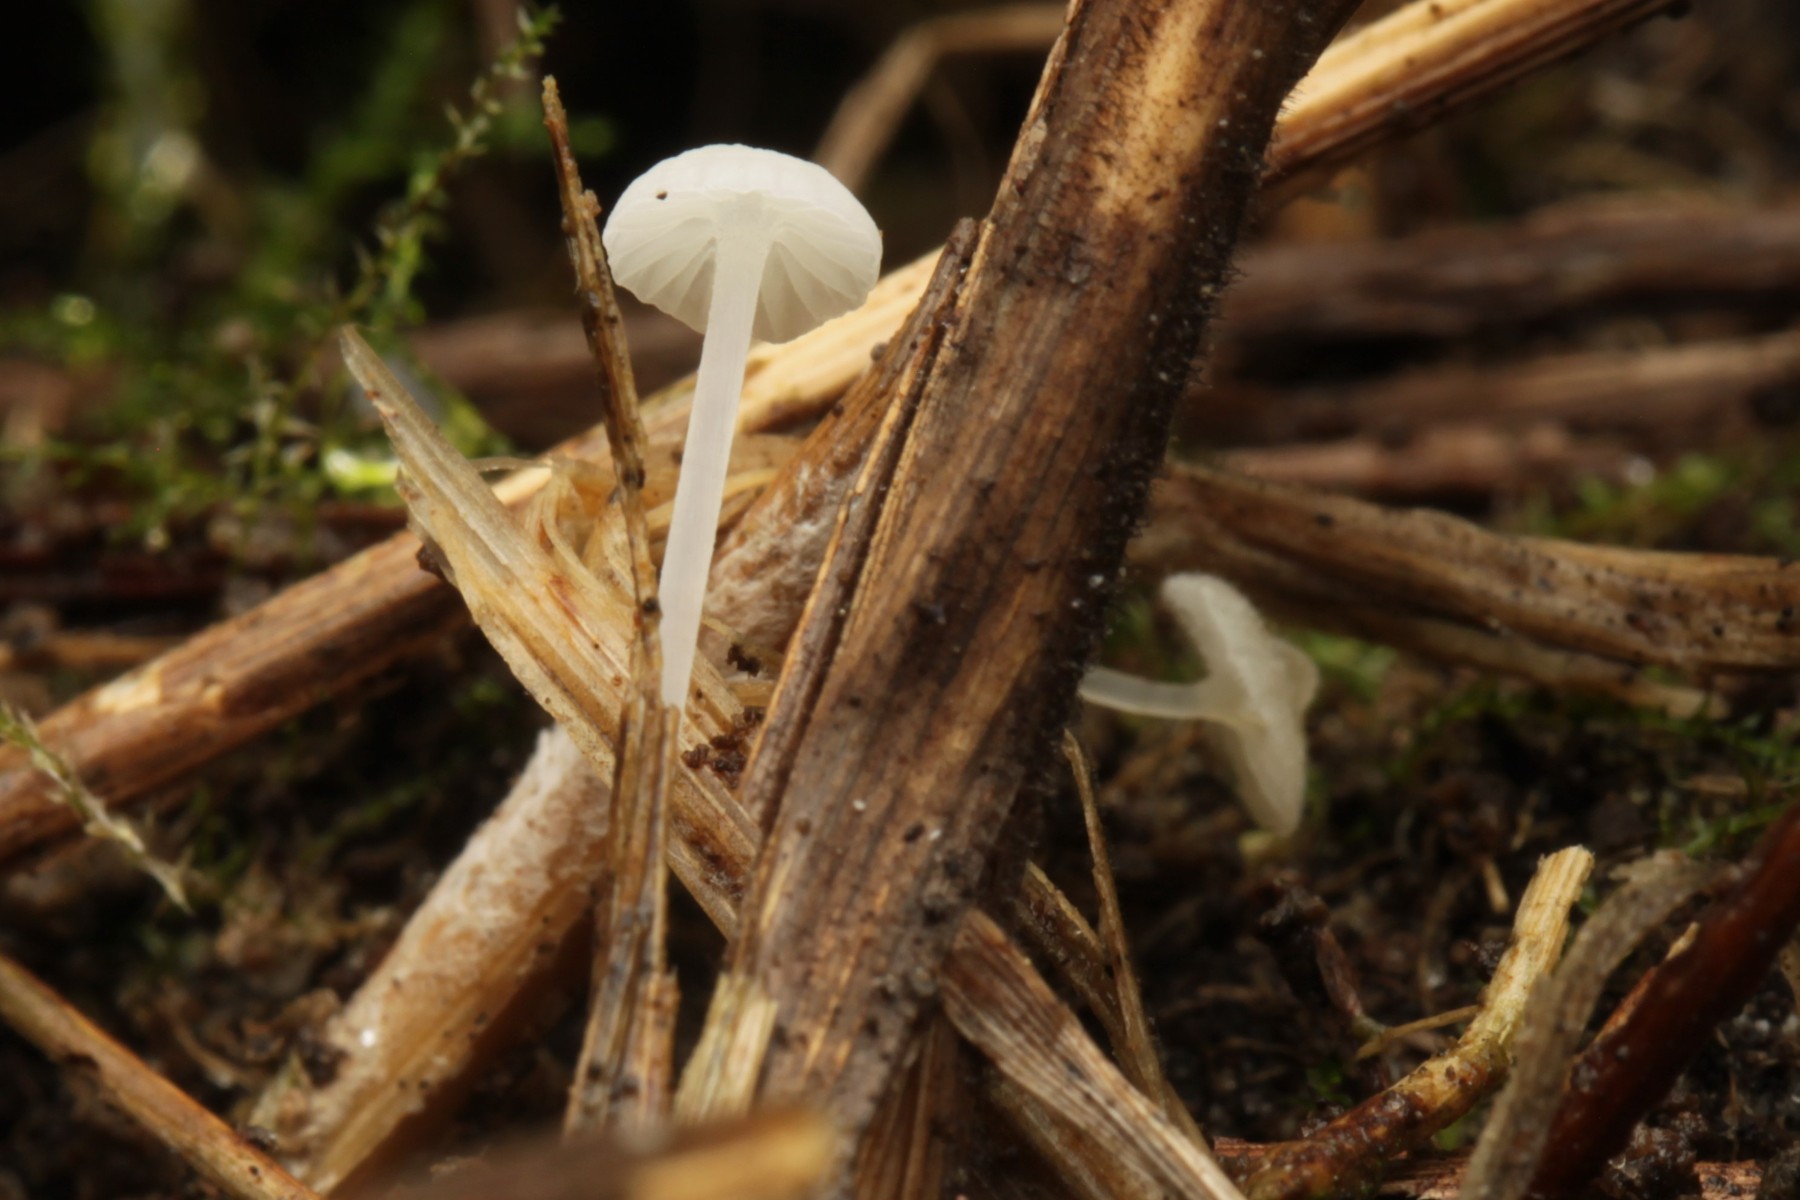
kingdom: Fungi
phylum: Basidiomycota
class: Agaricomycetes
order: Agaricales
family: Mycenaceae
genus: Atheniella
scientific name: Atheniella flavoalba
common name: gulhvid huesvamp
